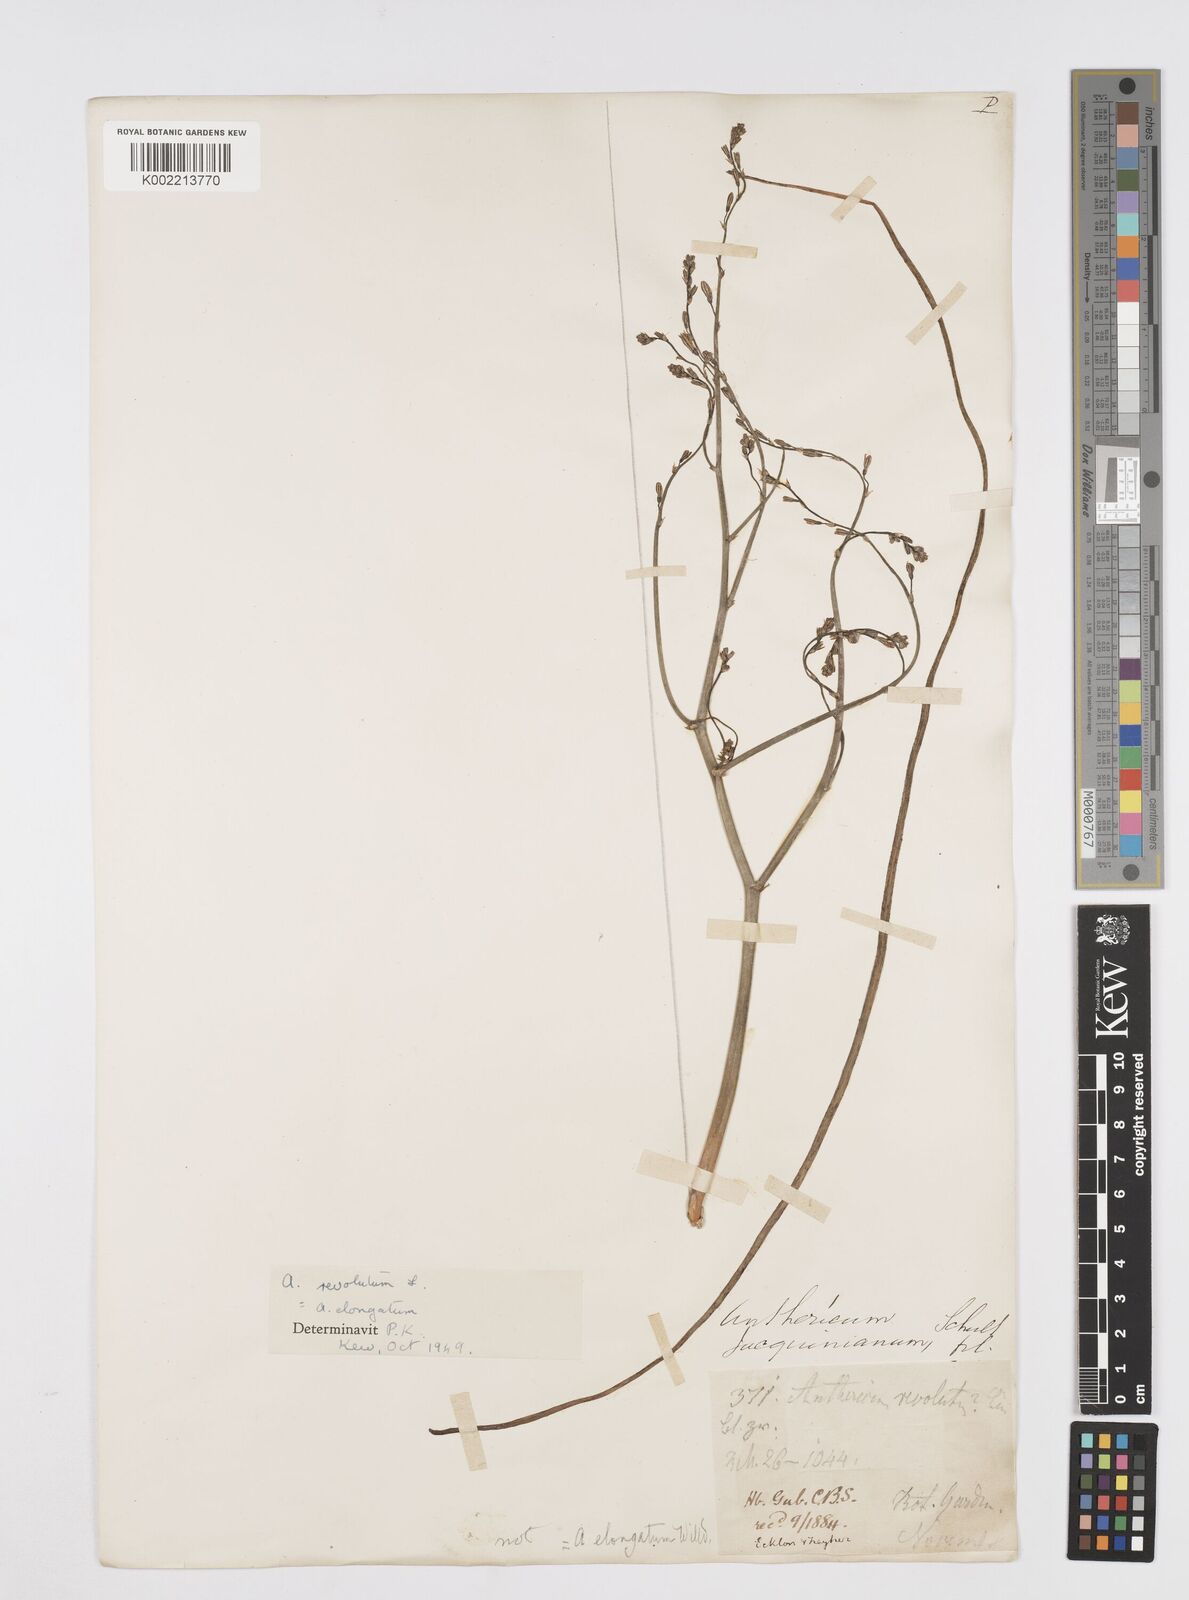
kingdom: Plantae
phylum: Tracheophyta
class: Liliopsida
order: Asparagales
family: Asphodelaceae
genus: Trachyandra
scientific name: Trachyandra revoluta
